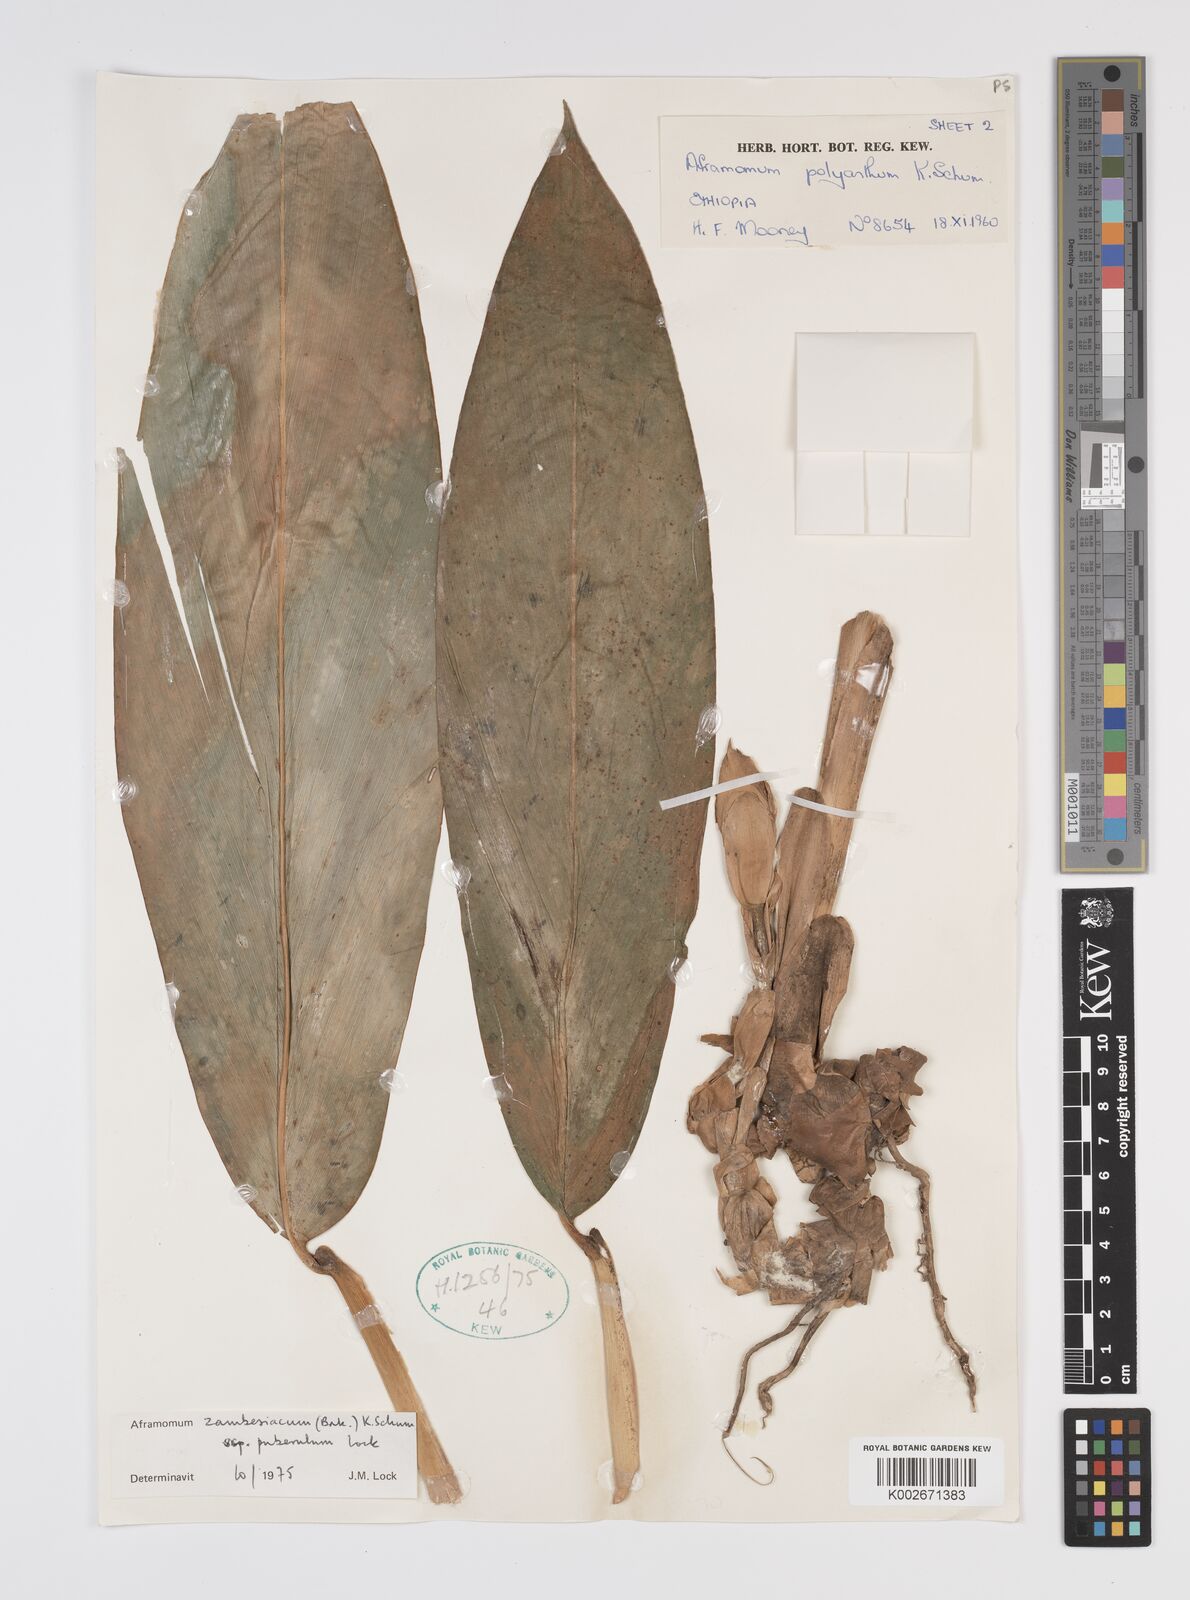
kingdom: Plantae
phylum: Tracheophyta
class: Liliopsida
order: Zingiberales
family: Zingiberaceae
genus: Aframomum
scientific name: Aframomum zambesiacum
